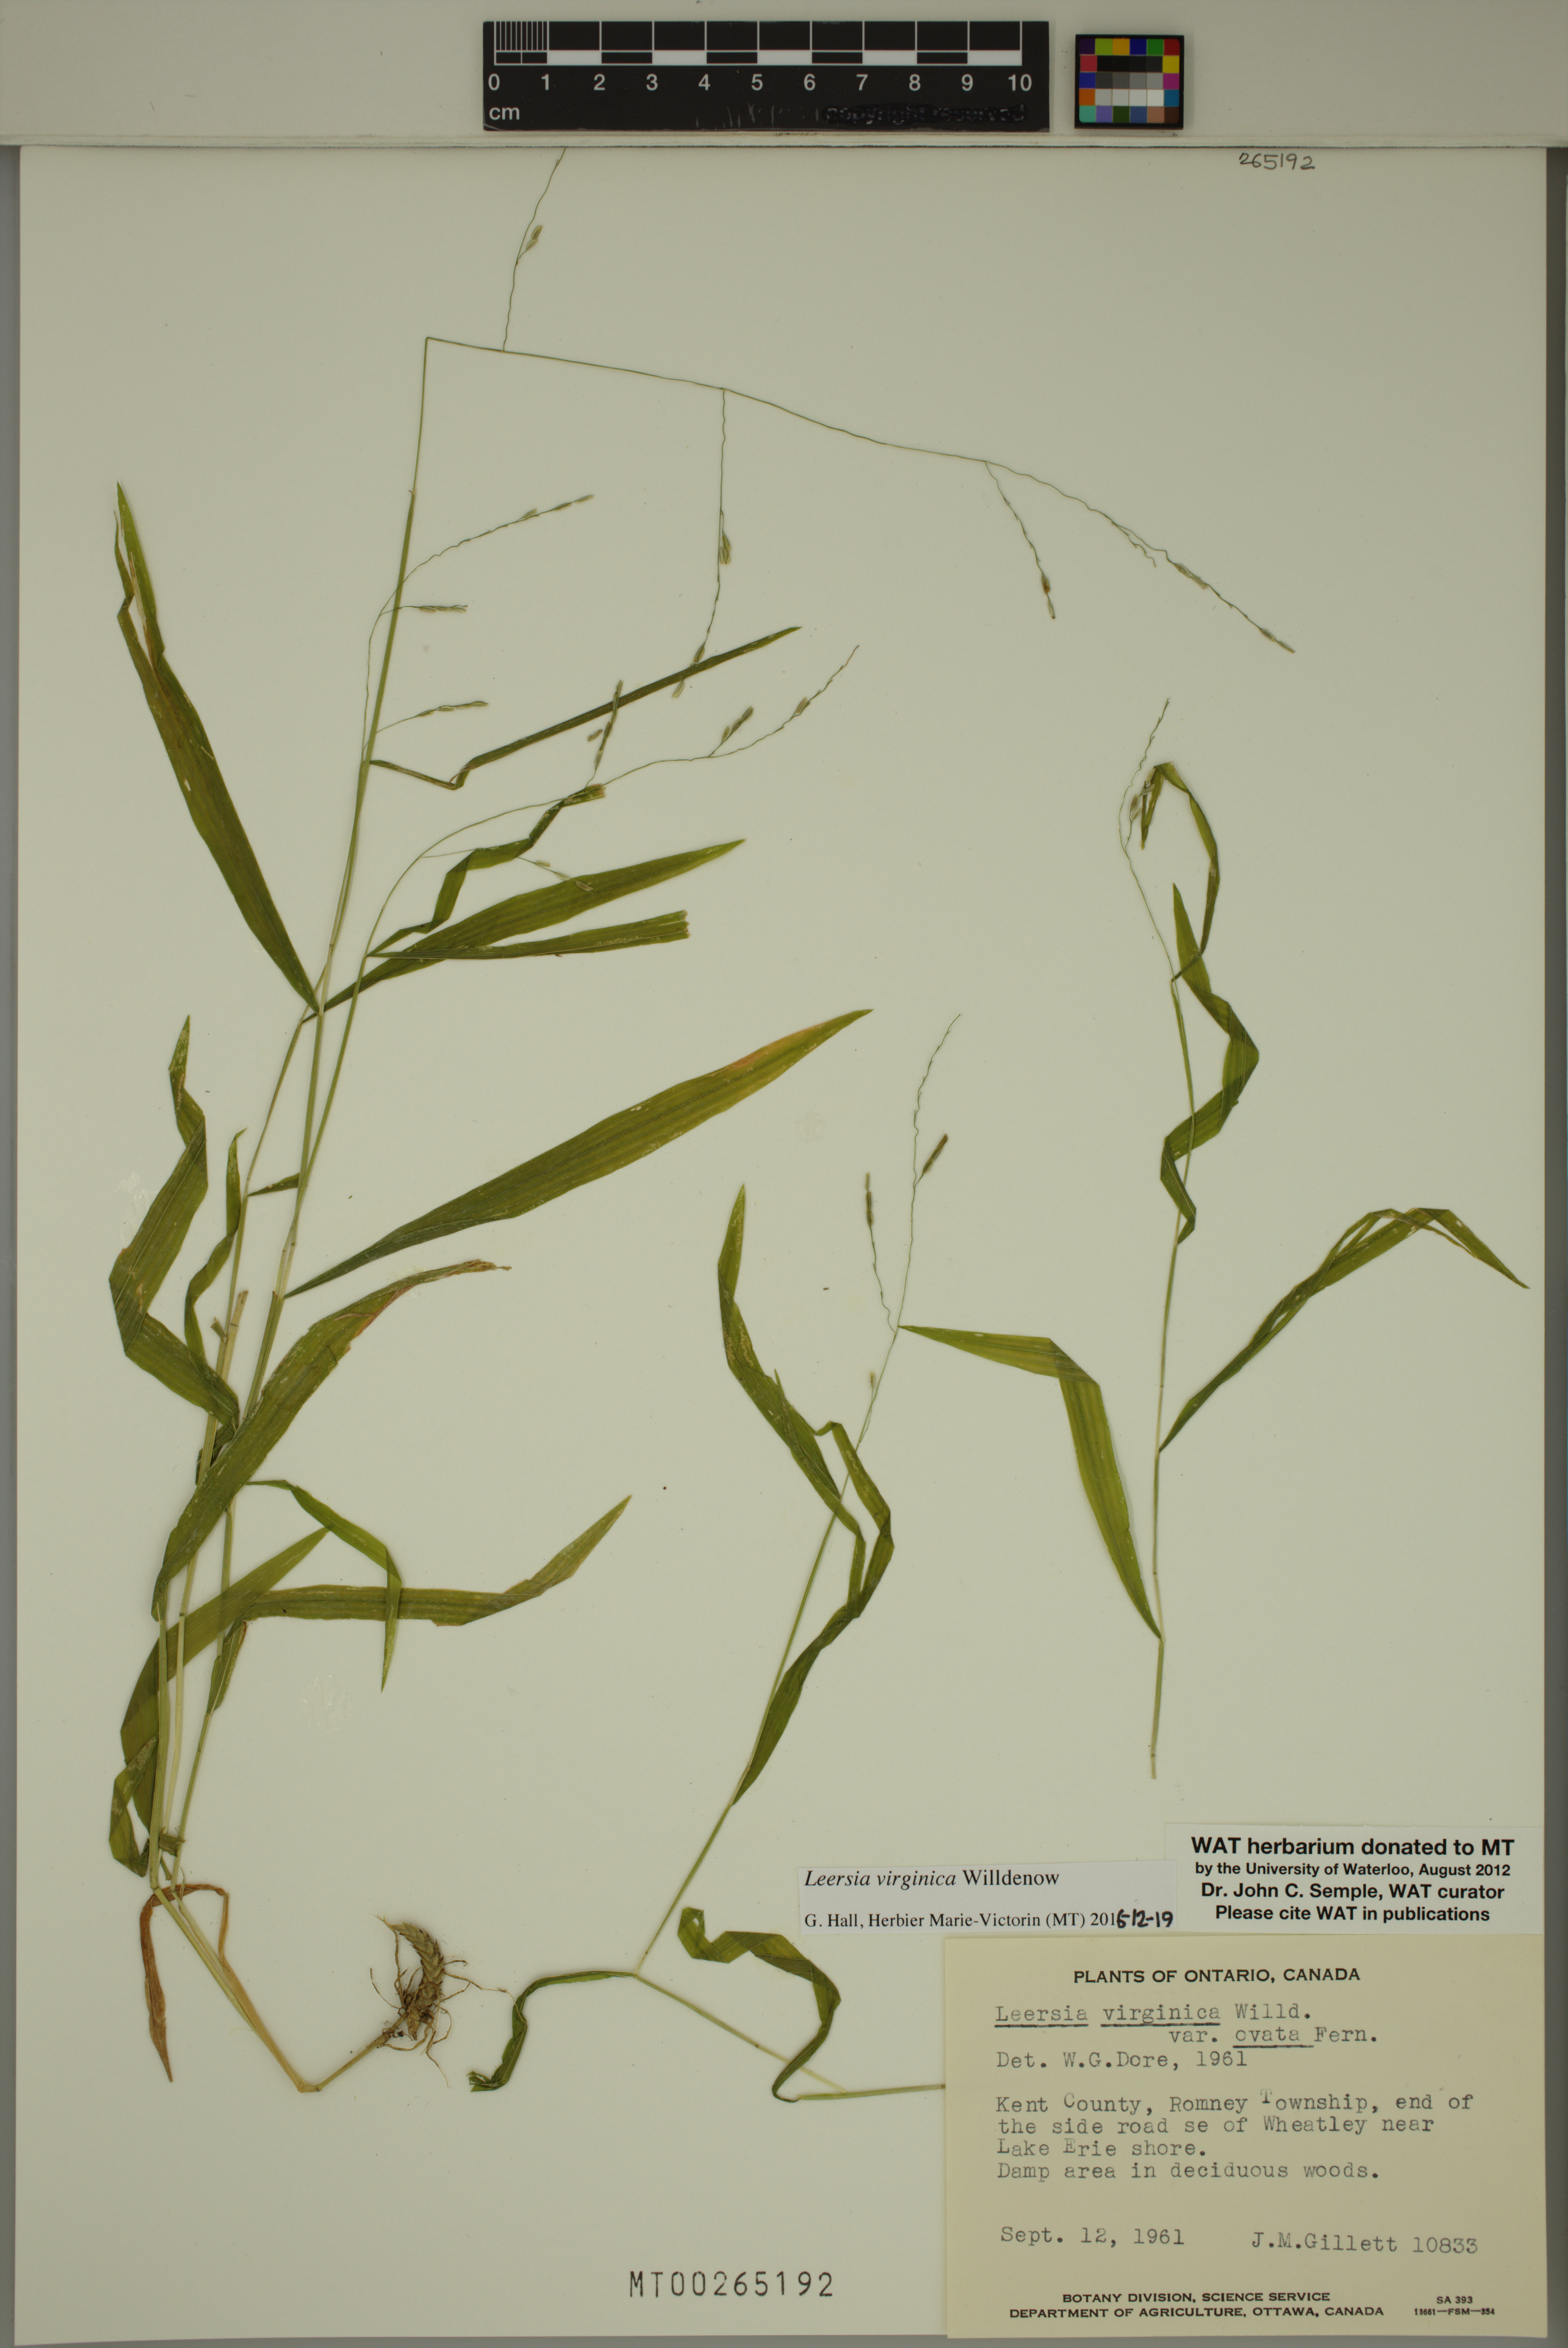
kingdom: Plantae
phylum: Tracheophyta
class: Liliopsida
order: Poales
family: Poaceae
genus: Leersia
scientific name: Leersia virginica
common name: White cutgrass
